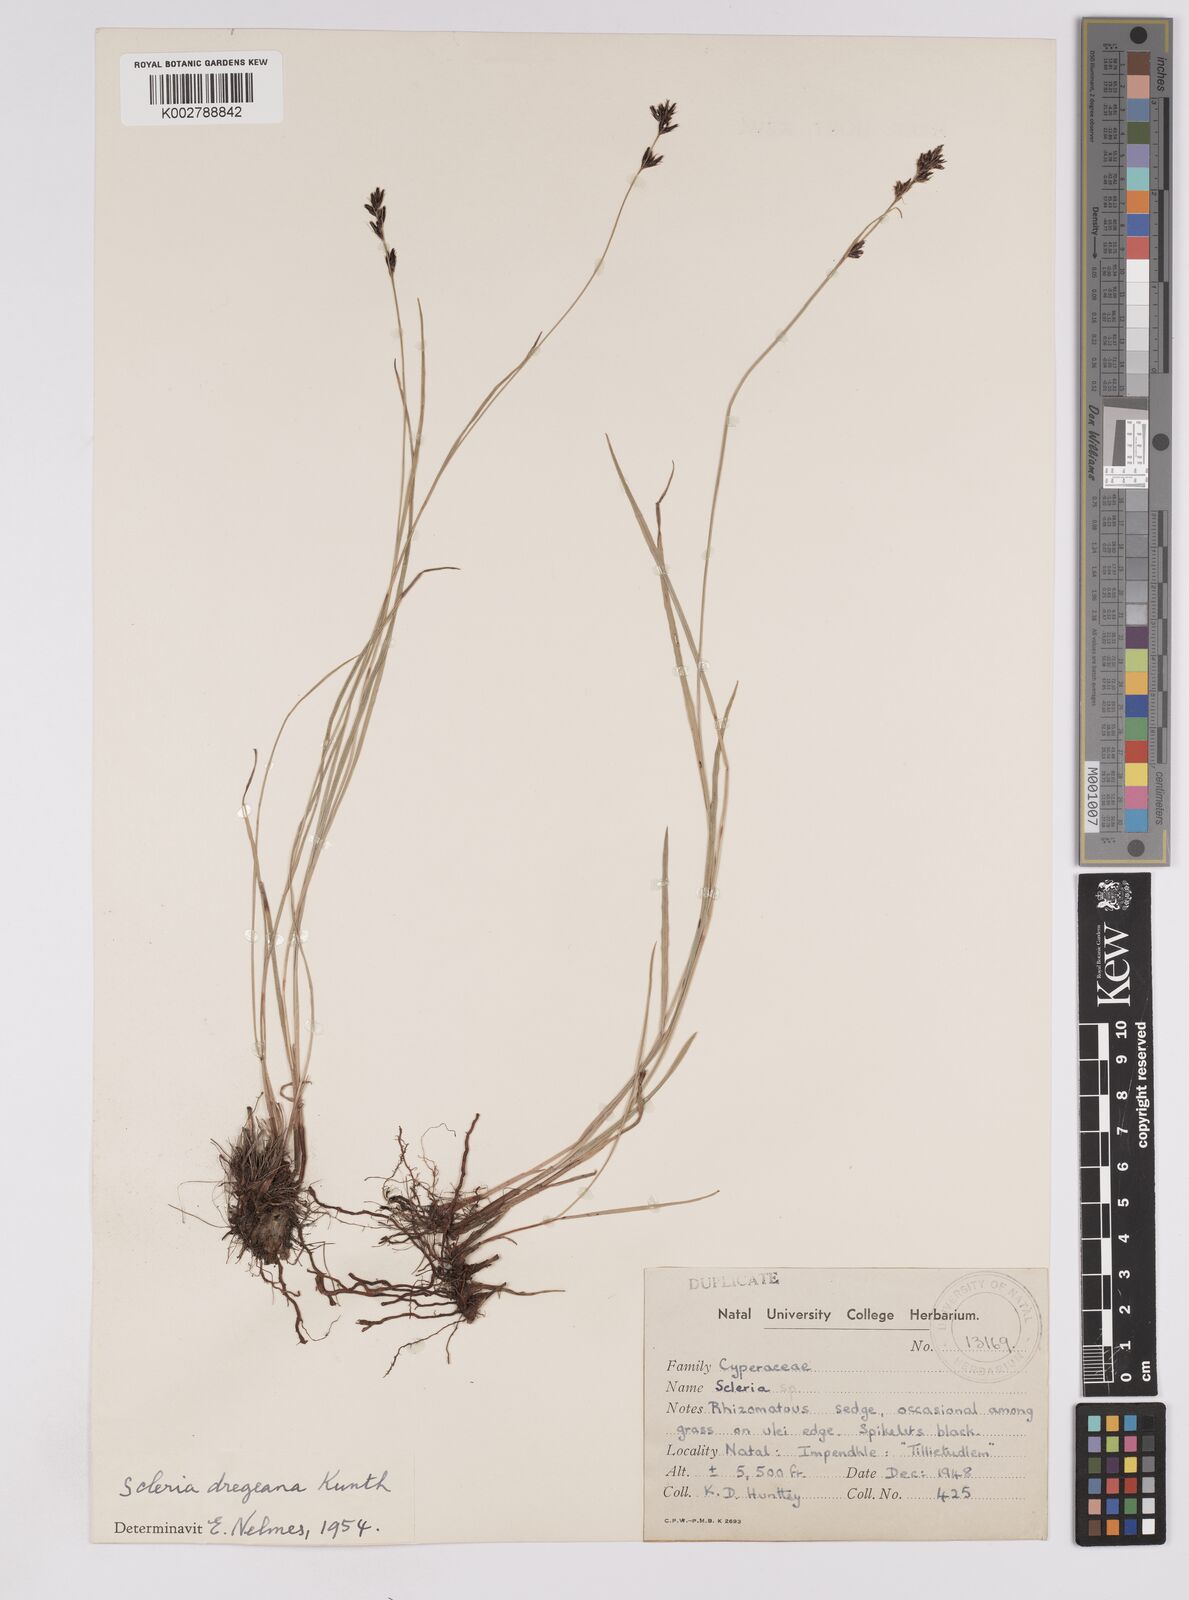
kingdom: Plantae
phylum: Tracheophyta
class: Liliopsida
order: Poales
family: Cyperaceae
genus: Scleria
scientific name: Scleria dregeana
